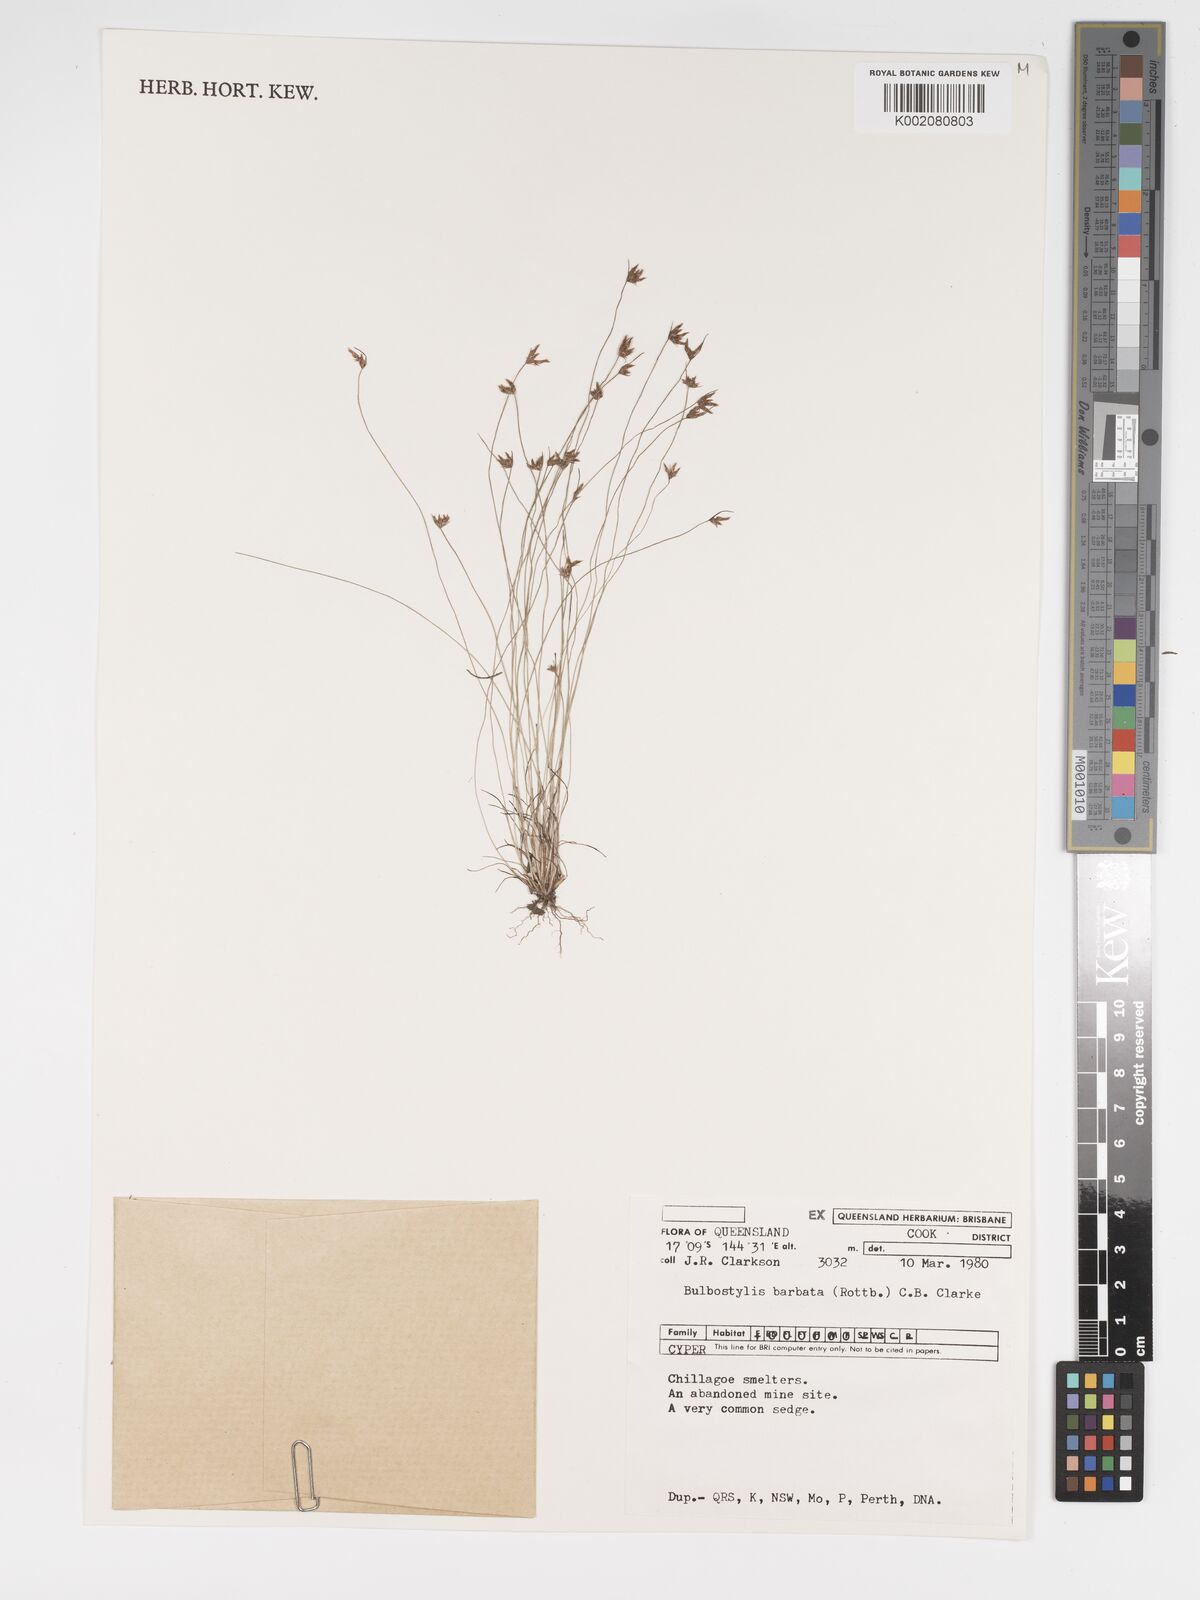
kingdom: Plantae
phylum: Tracheophyta
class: Liliopsida
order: Poales
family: Cyperaceae
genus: Bulbostylis
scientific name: Bulbostylis barbata
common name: Watergrass
